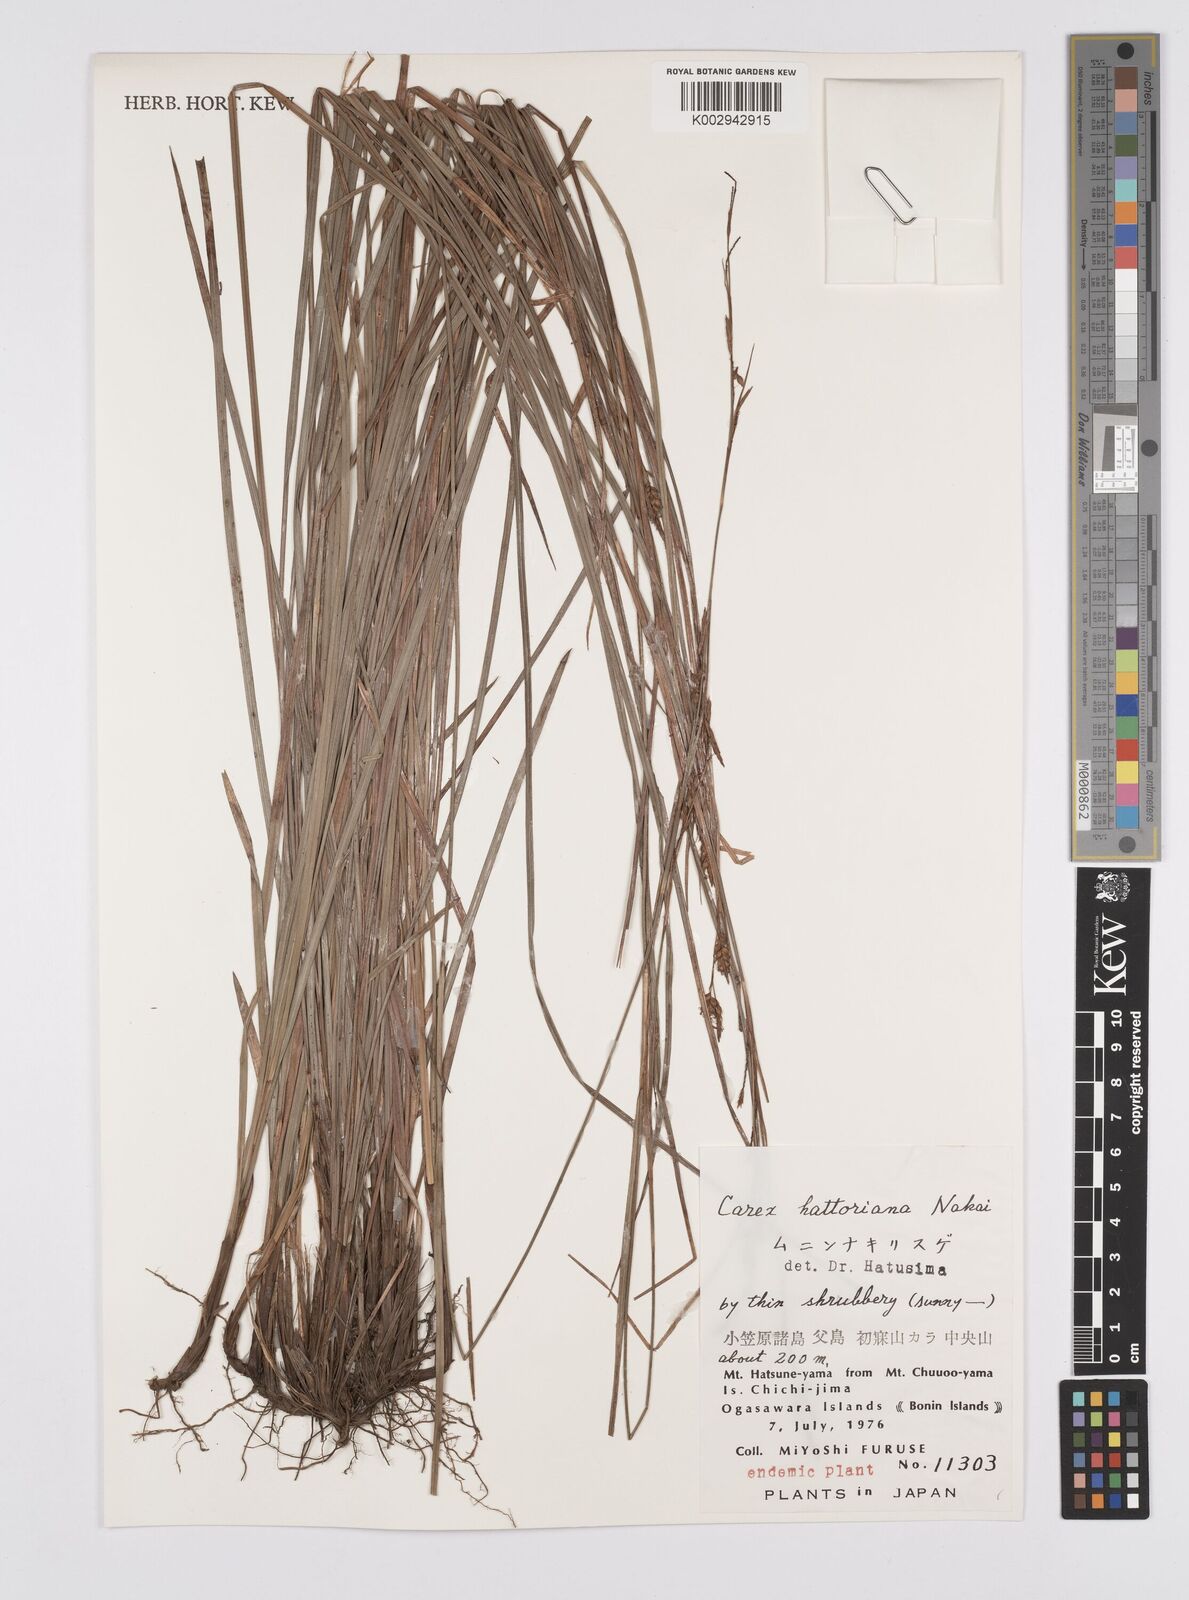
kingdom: Plantae
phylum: Tracheophyta
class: Liliopsida
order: Poales
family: Cyperaceae
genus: Carex
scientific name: Carex hattoriana
